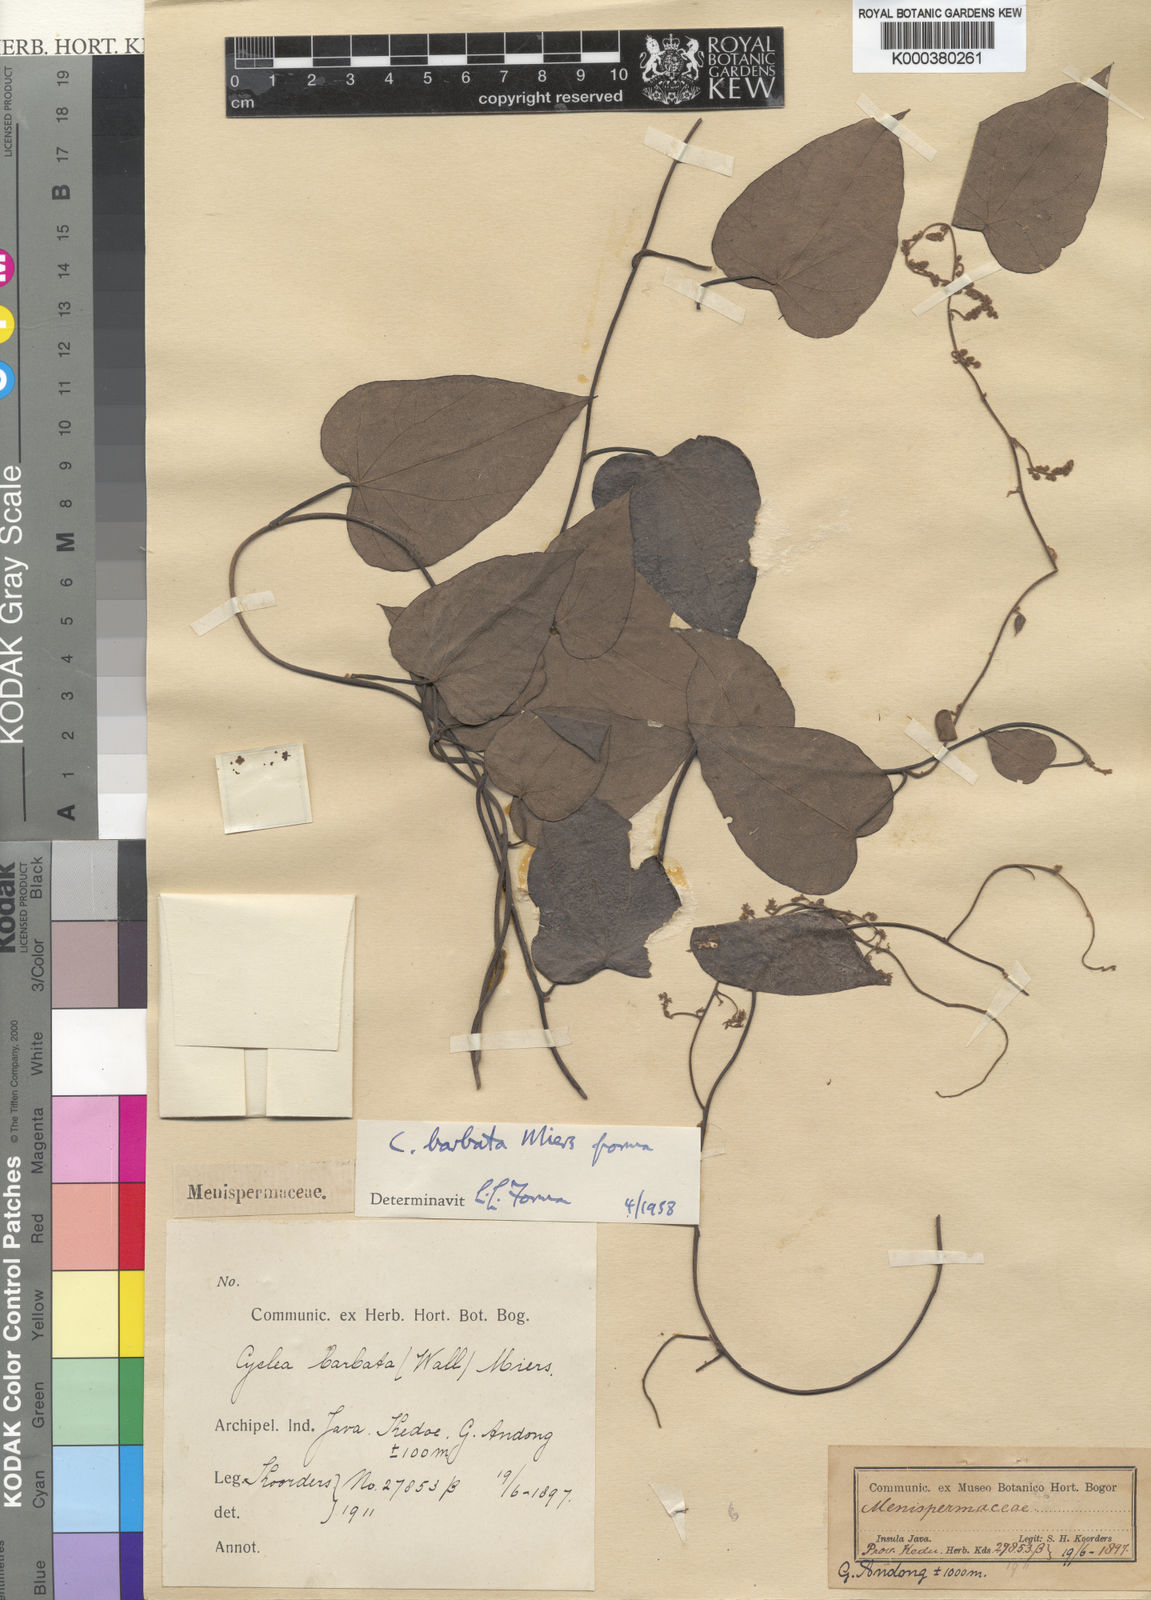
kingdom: Plantae
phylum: Tracheophyta
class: Magnoliopsida
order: Ranunculales
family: Menispermaceae
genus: Cyclea
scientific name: Cyclea barbata
